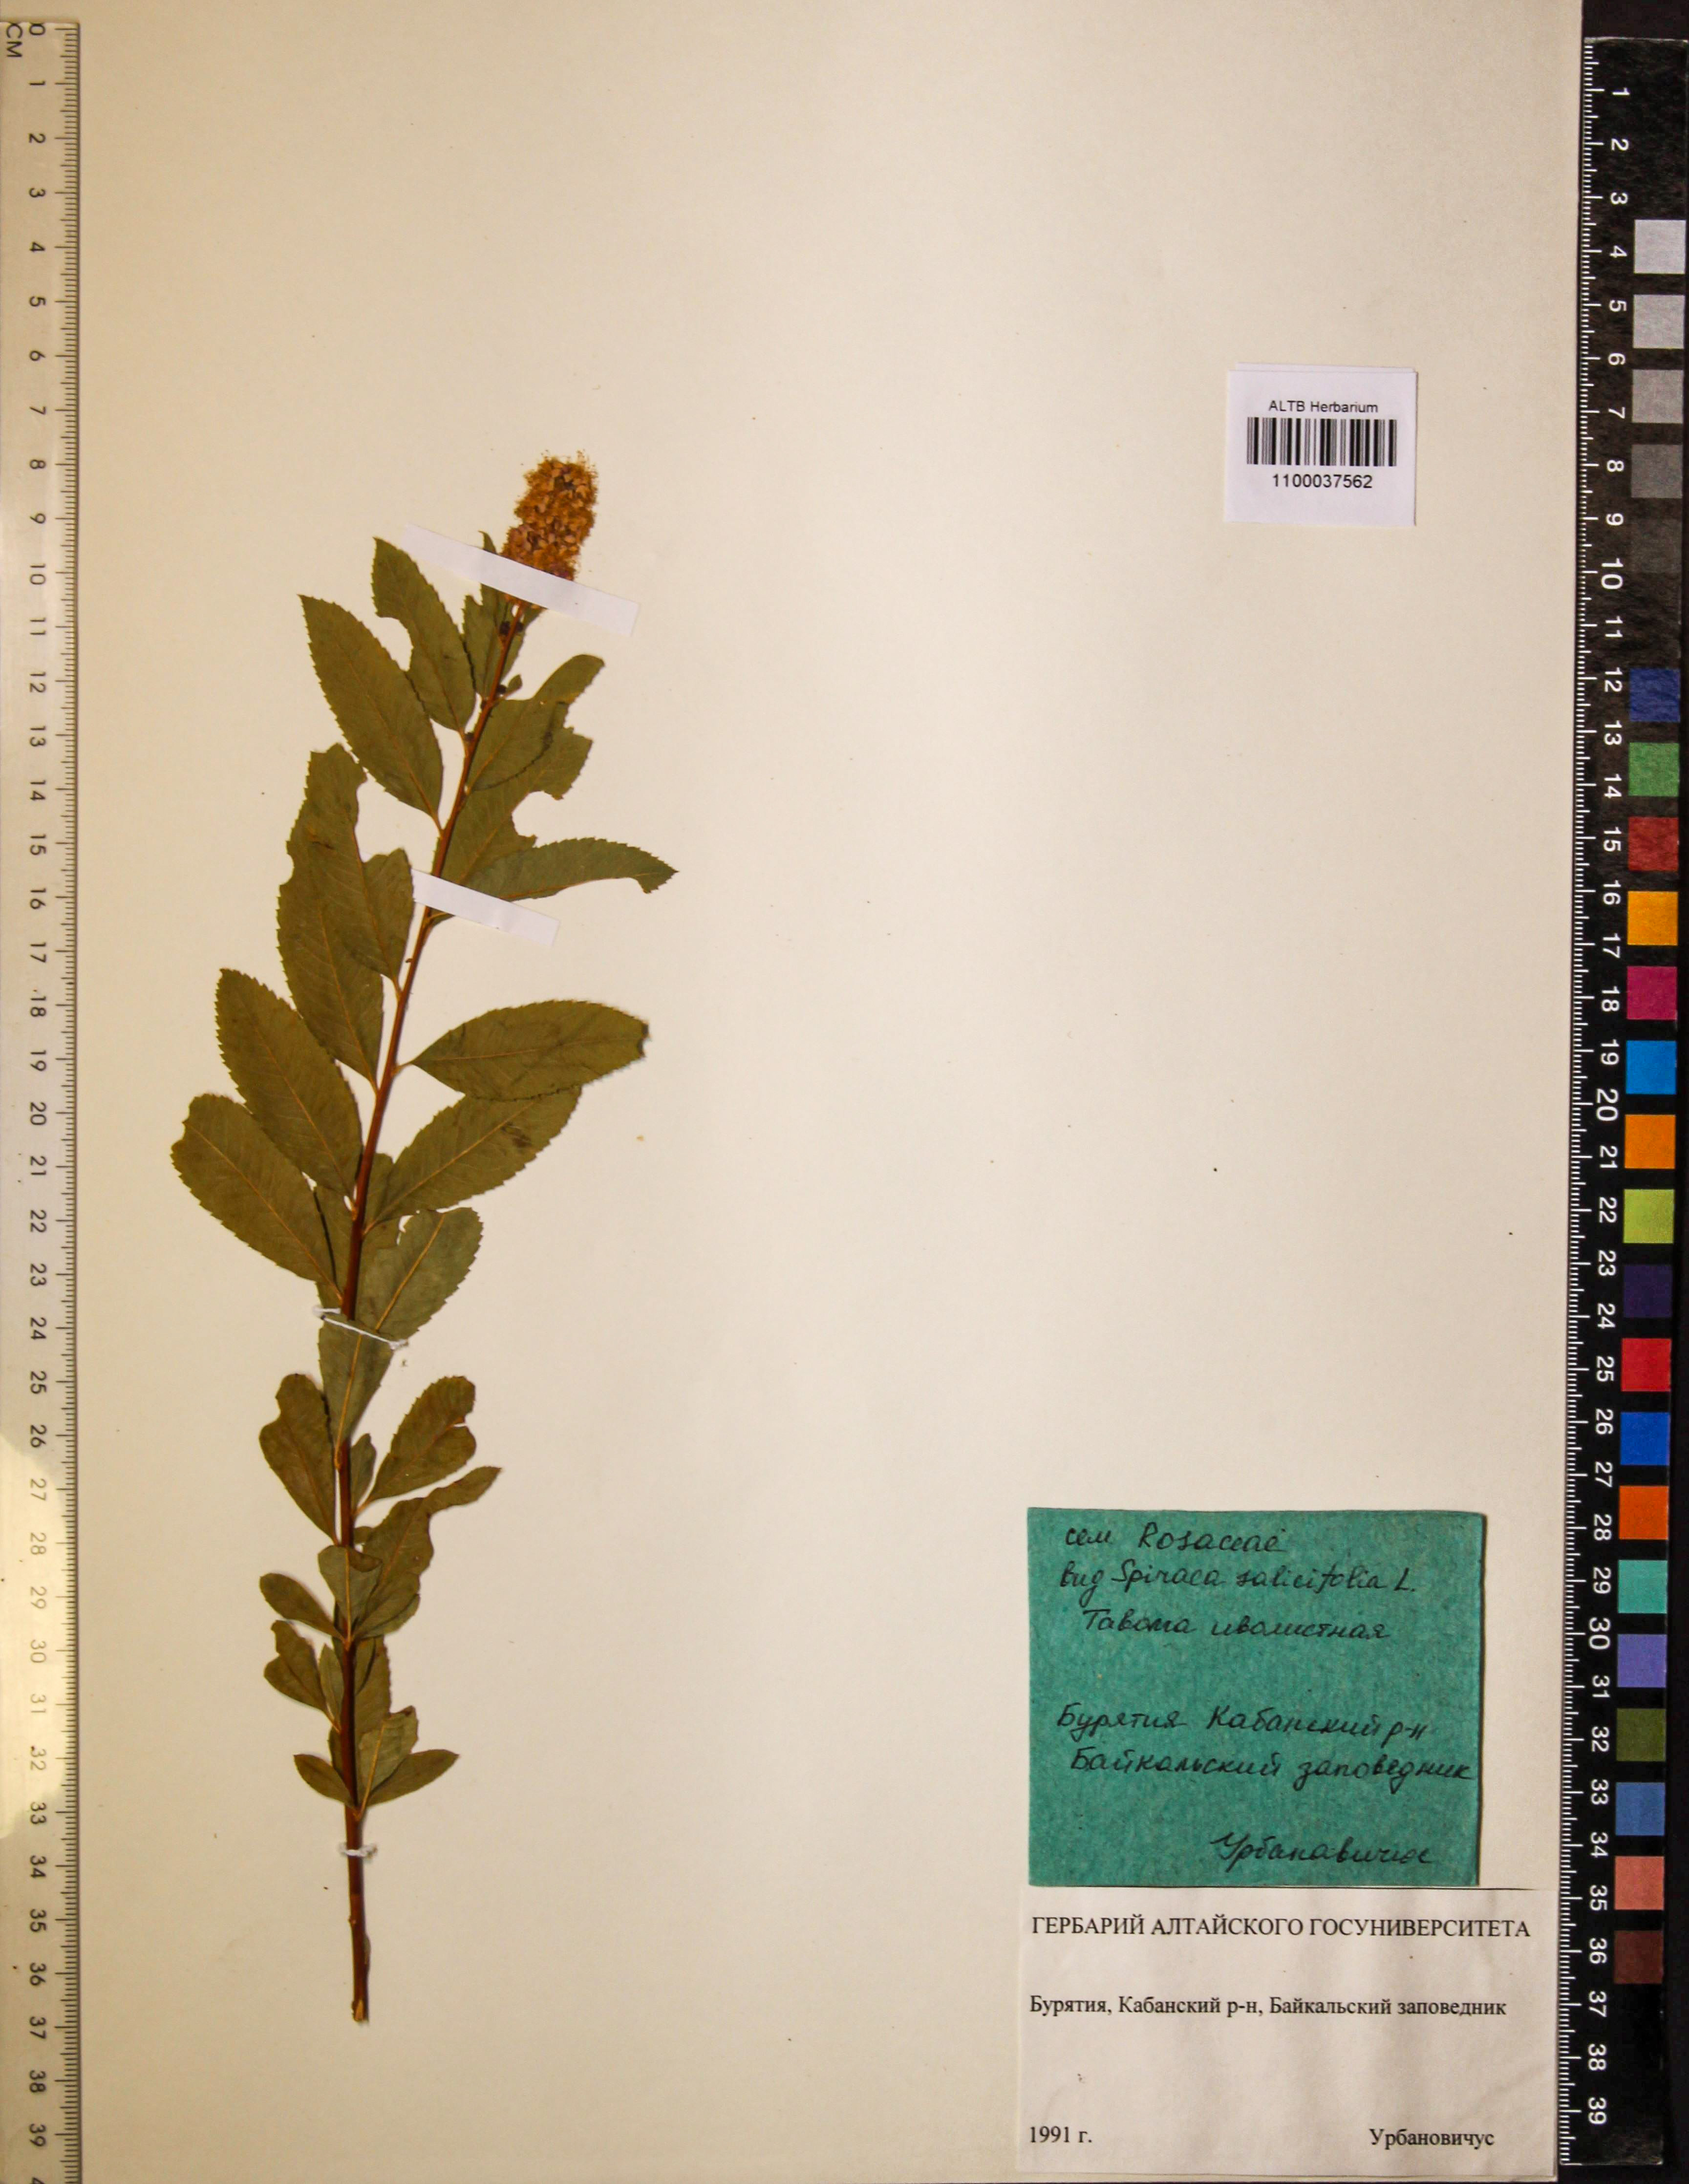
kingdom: Plantae
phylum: Tracheophyta
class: Magnoliopsida
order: Rosales
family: Rosaceae
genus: Spiraea
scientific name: Spiraea salicifolia
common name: Bridewort
